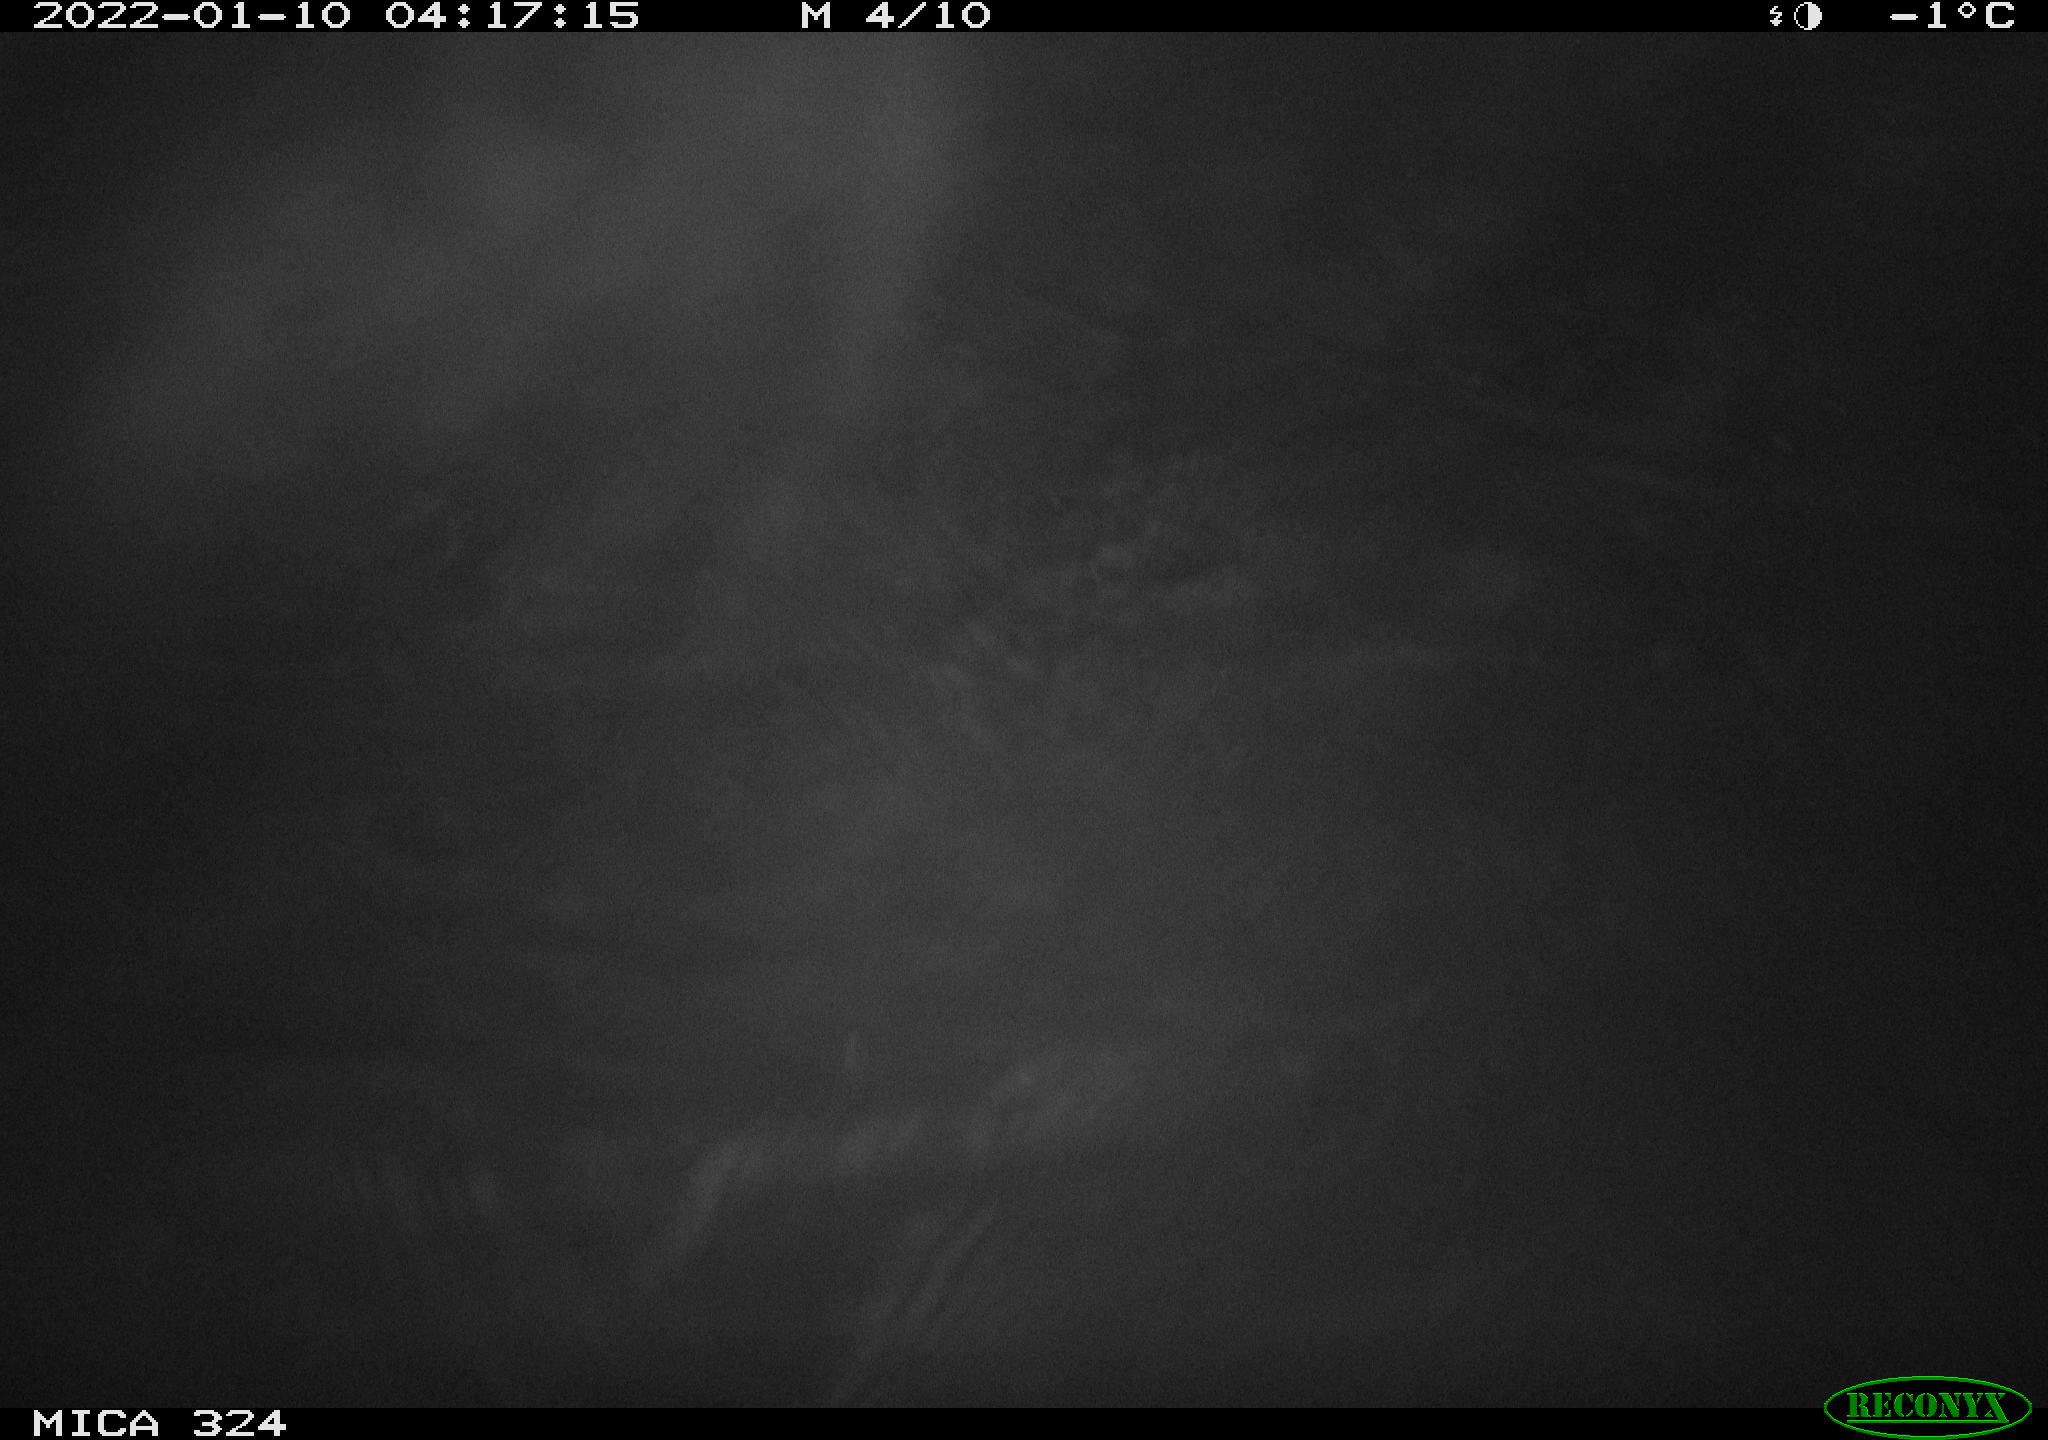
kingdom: Animalia
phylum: Chordata
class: Mammalia
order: Rodentia
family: Cricetidae
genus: Ondatra
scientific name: Ondatra zibethicus
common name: Muskrat
